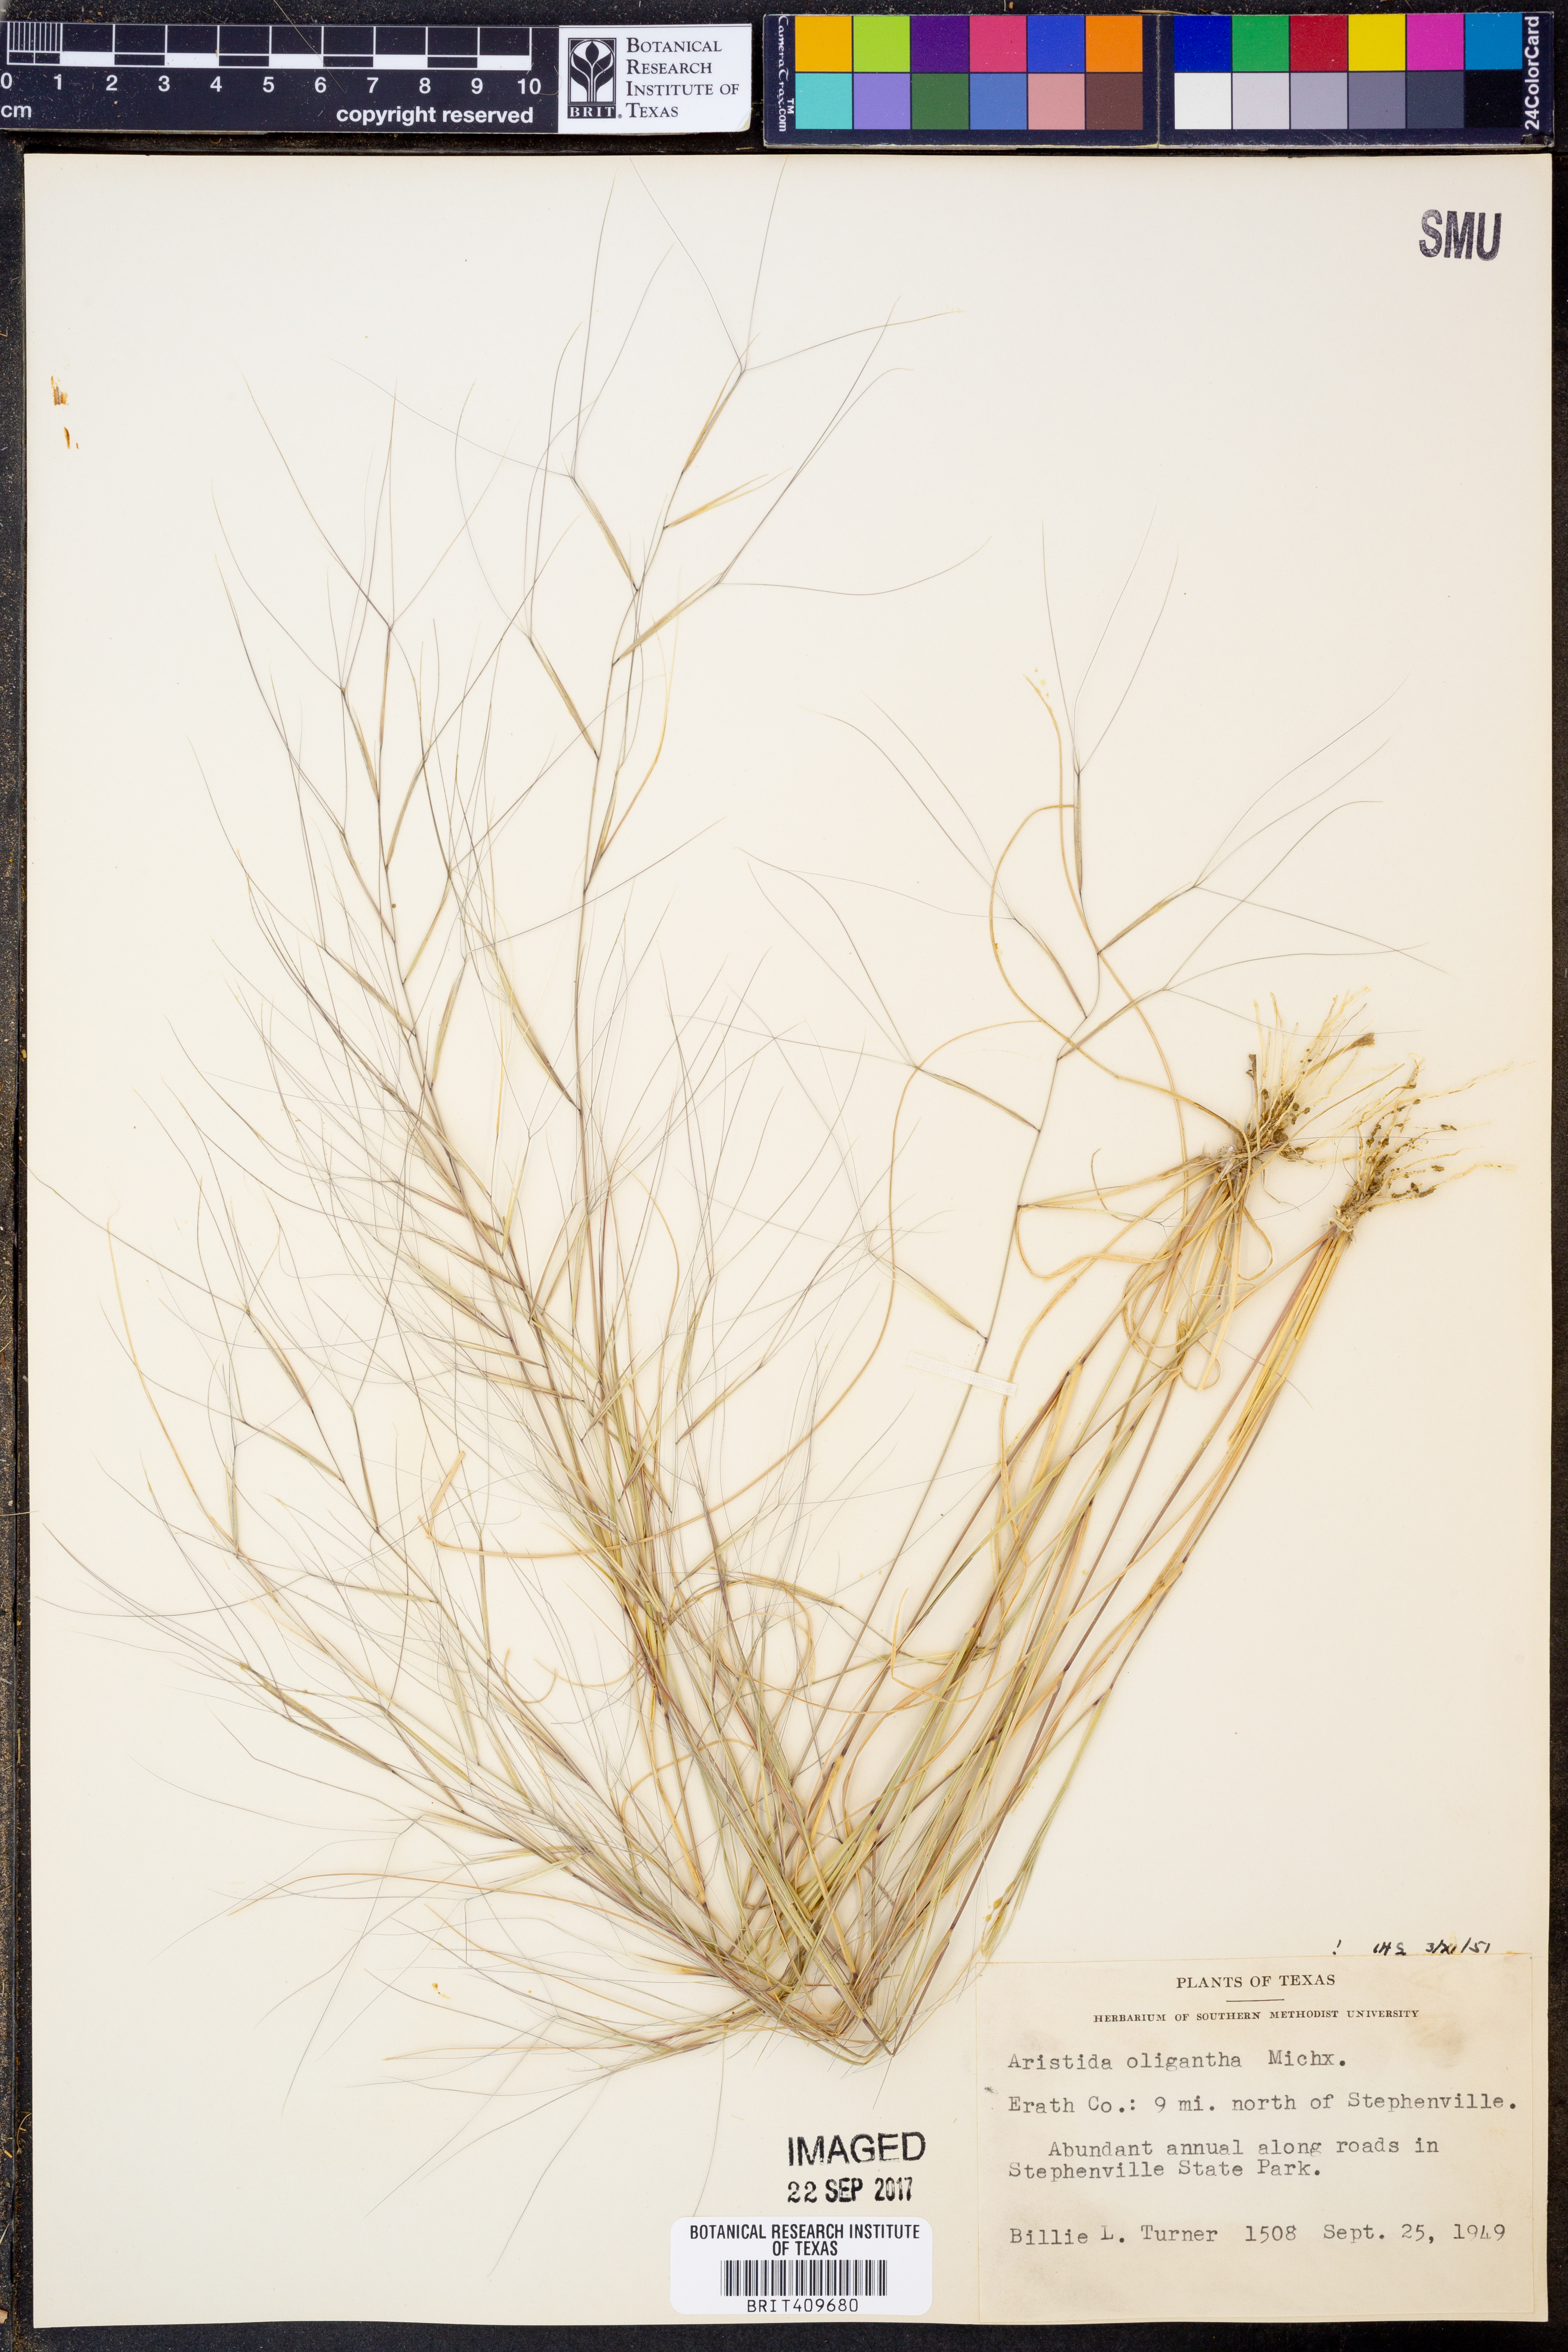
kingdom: Plantae
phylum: Tracheophyta
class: Liliopsida
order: Poales
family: Poaceae
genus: Aristida
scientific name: Aristida oligantha
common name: Few-flowered aristida
